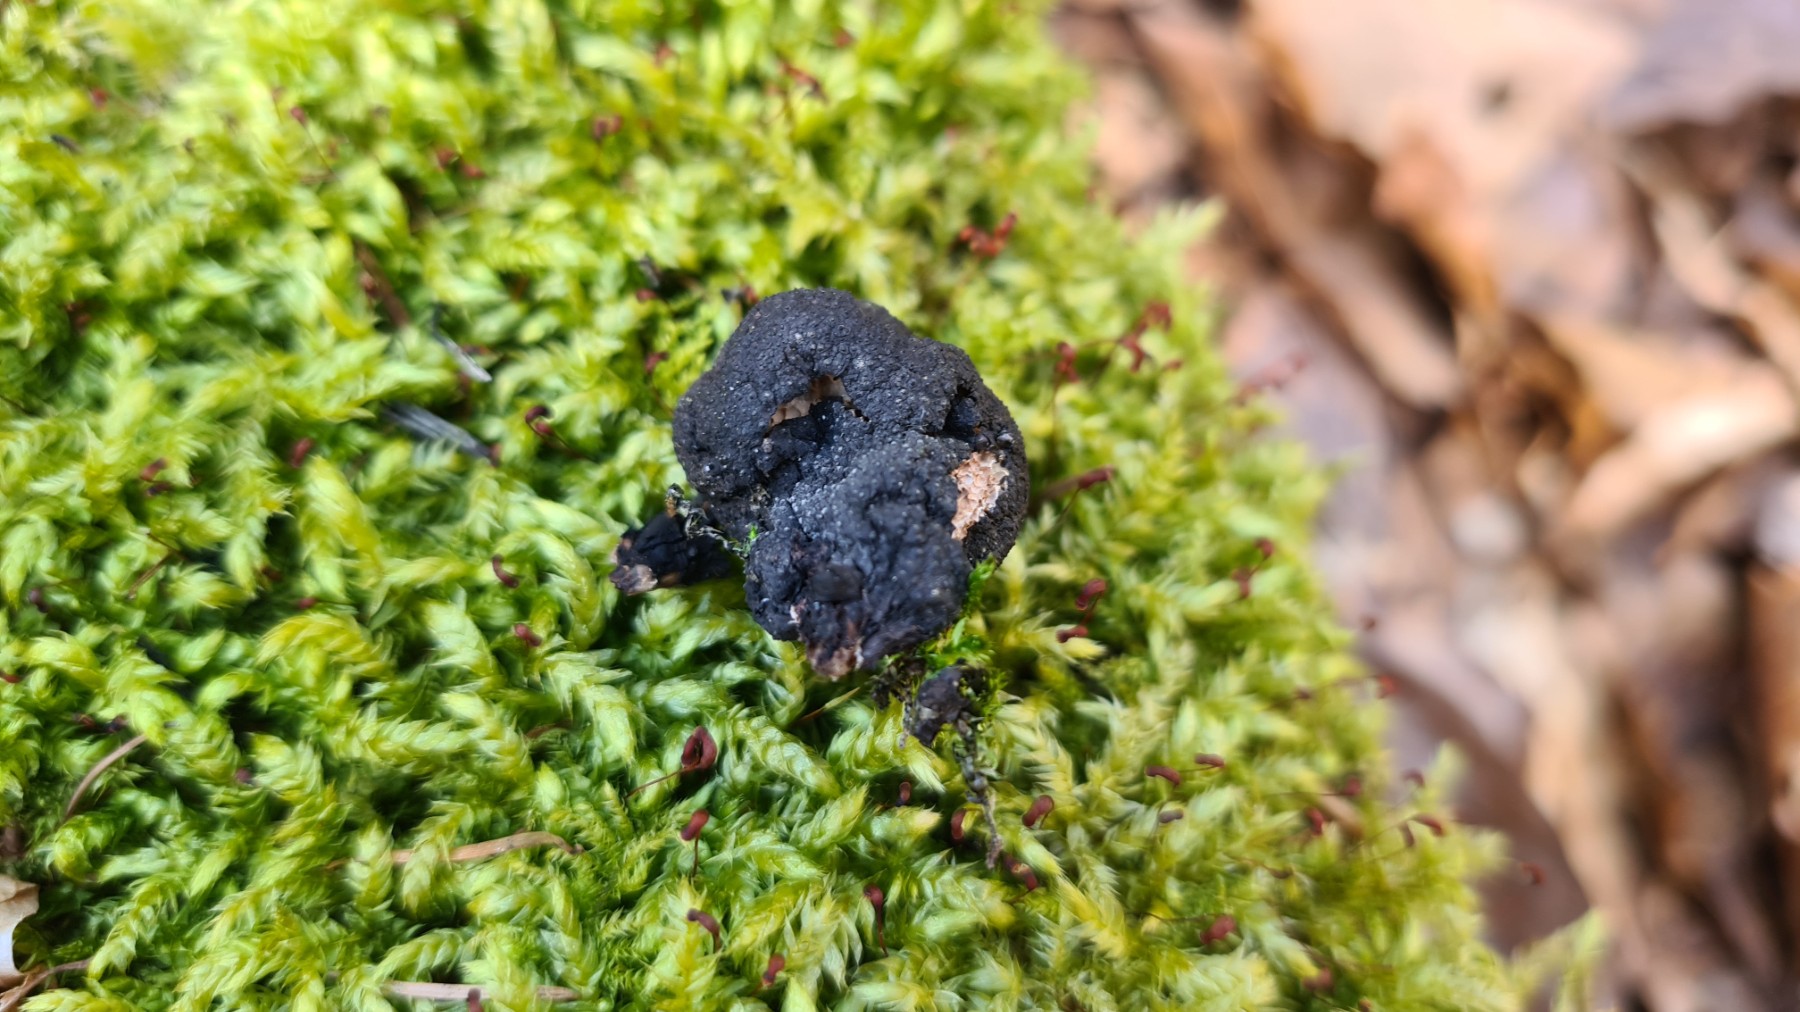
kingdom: Fungi
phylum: Ascomycota
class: Sordariomycetes
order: Xylariales
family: Xylariaceae
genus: Xylaria
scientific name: Xylaria polymorpha
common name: kølle-stødsvamp
